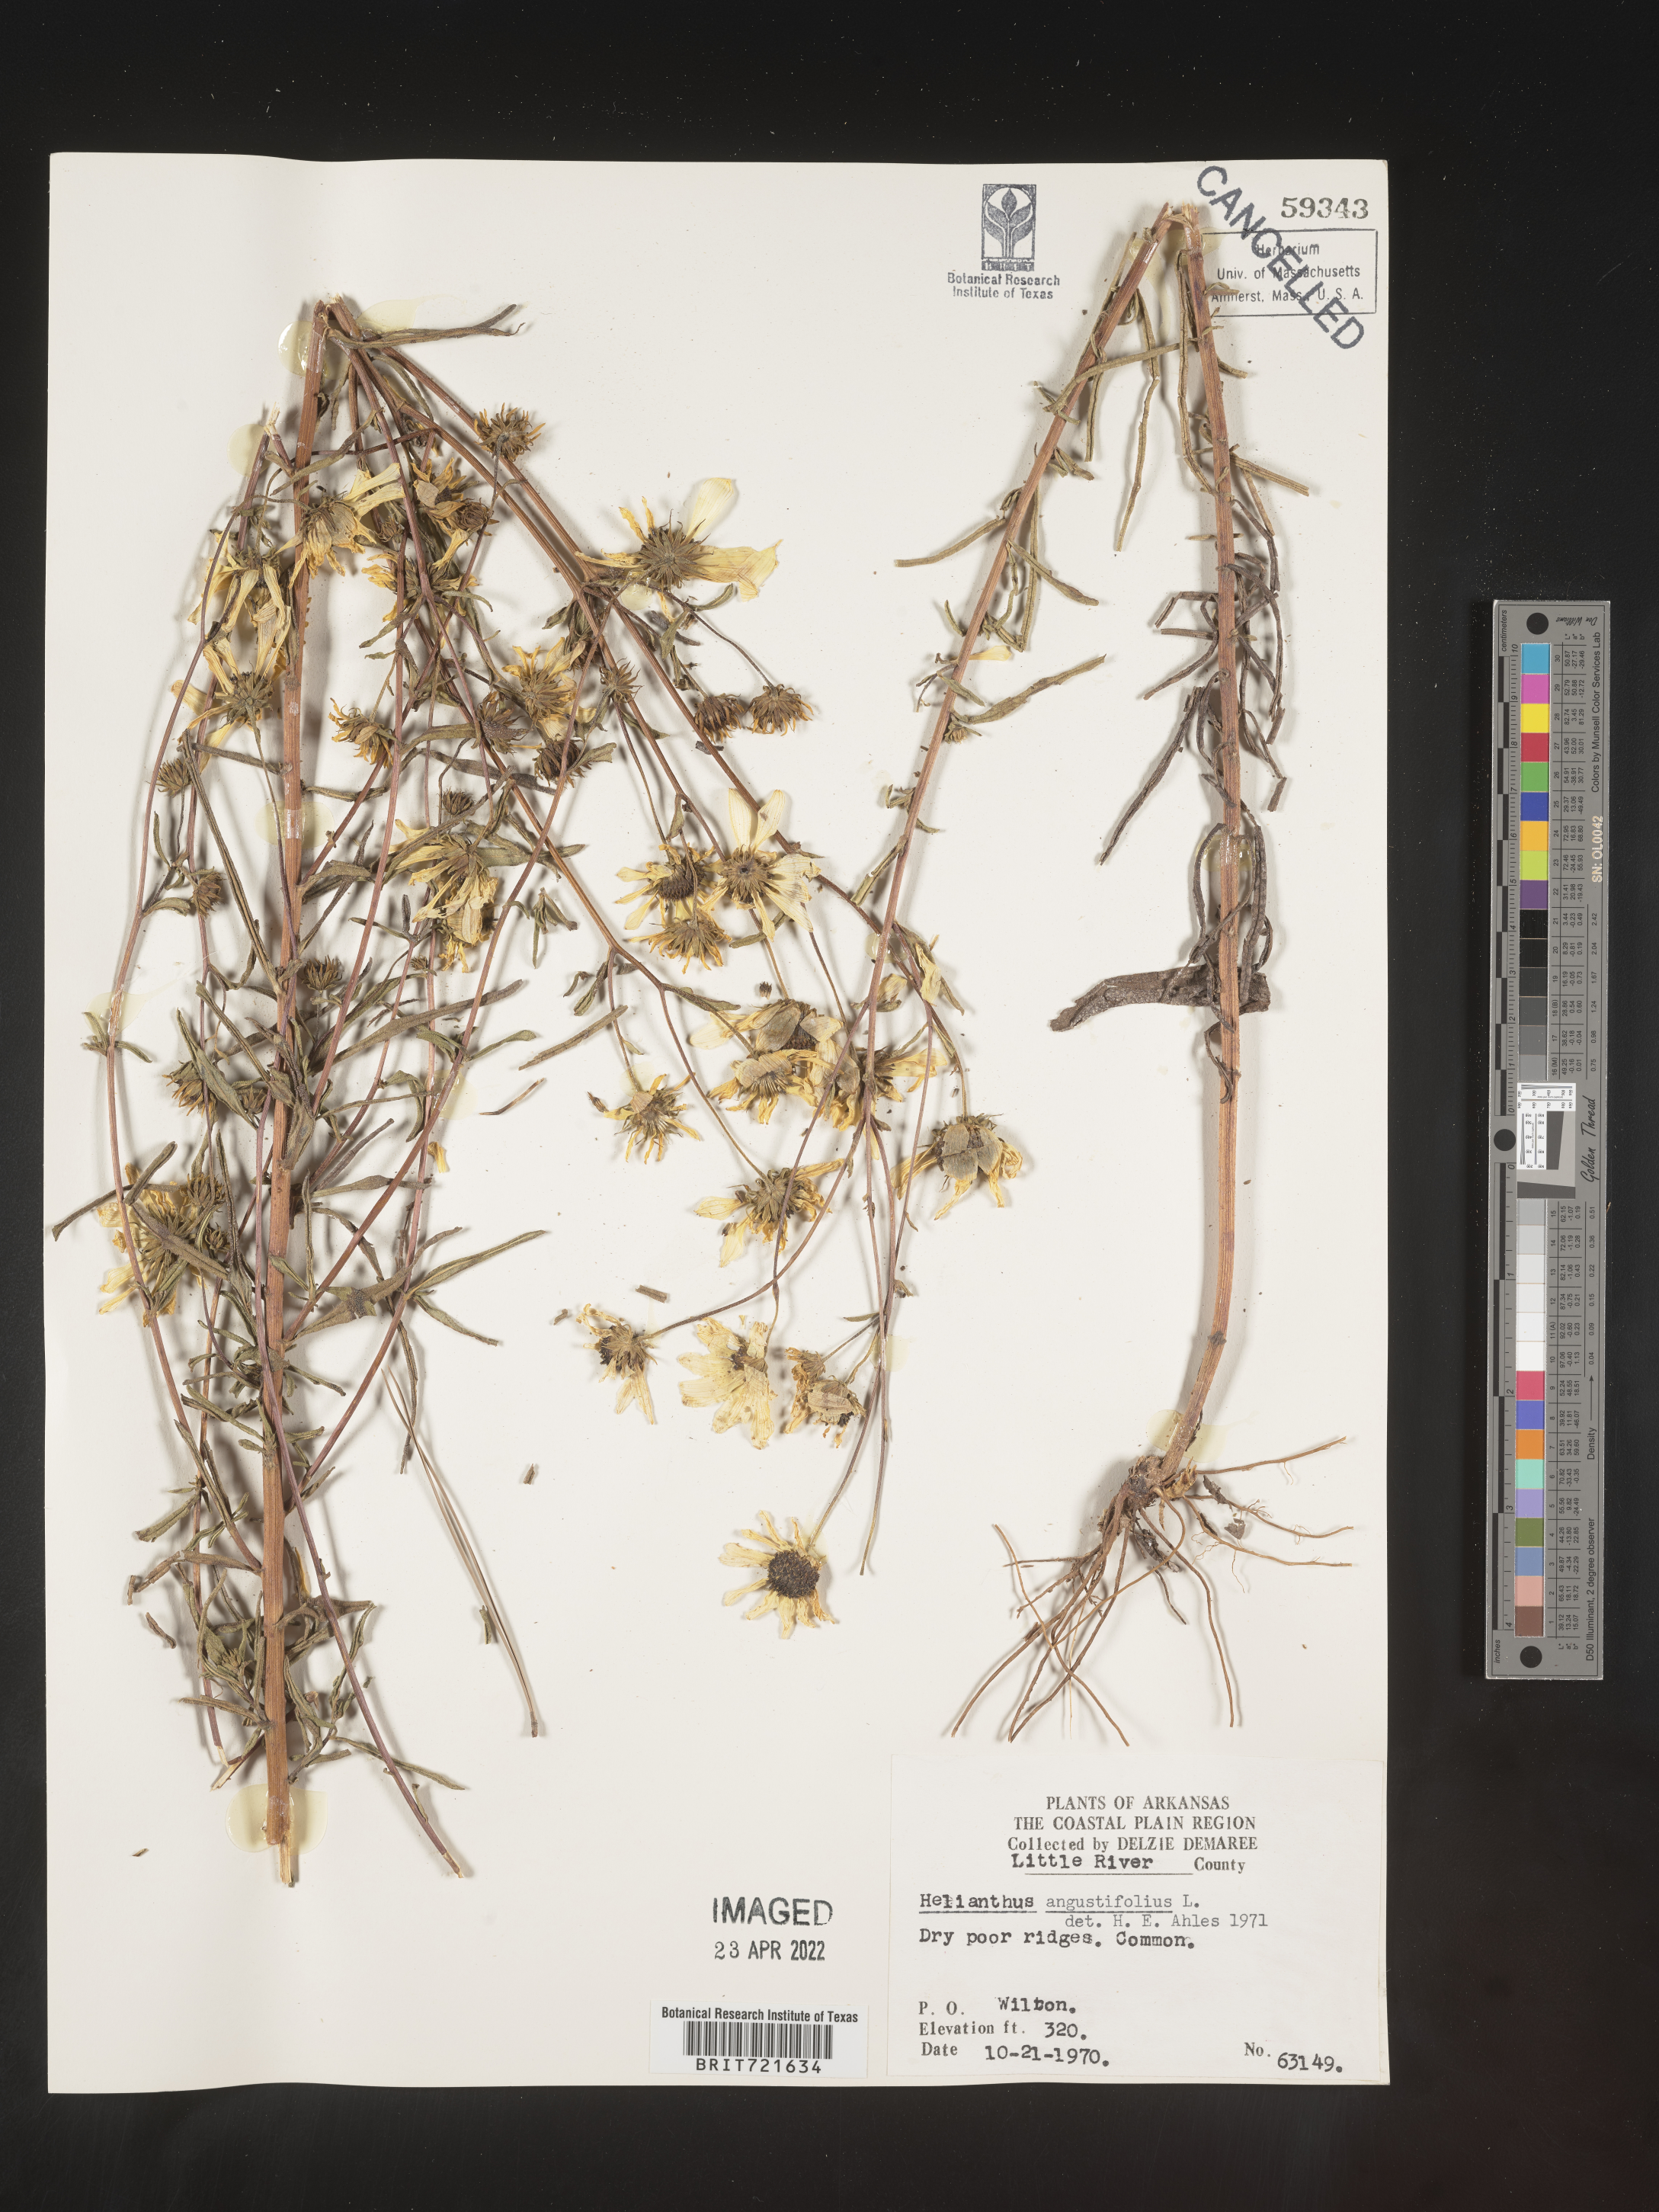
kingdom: Plantae
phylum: Tracheophyta
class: Magnoliopsida
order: Asterales
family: Asteraceae
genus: Helianthus
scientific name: Helianthus angustifolius
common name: Swamp sunflower
